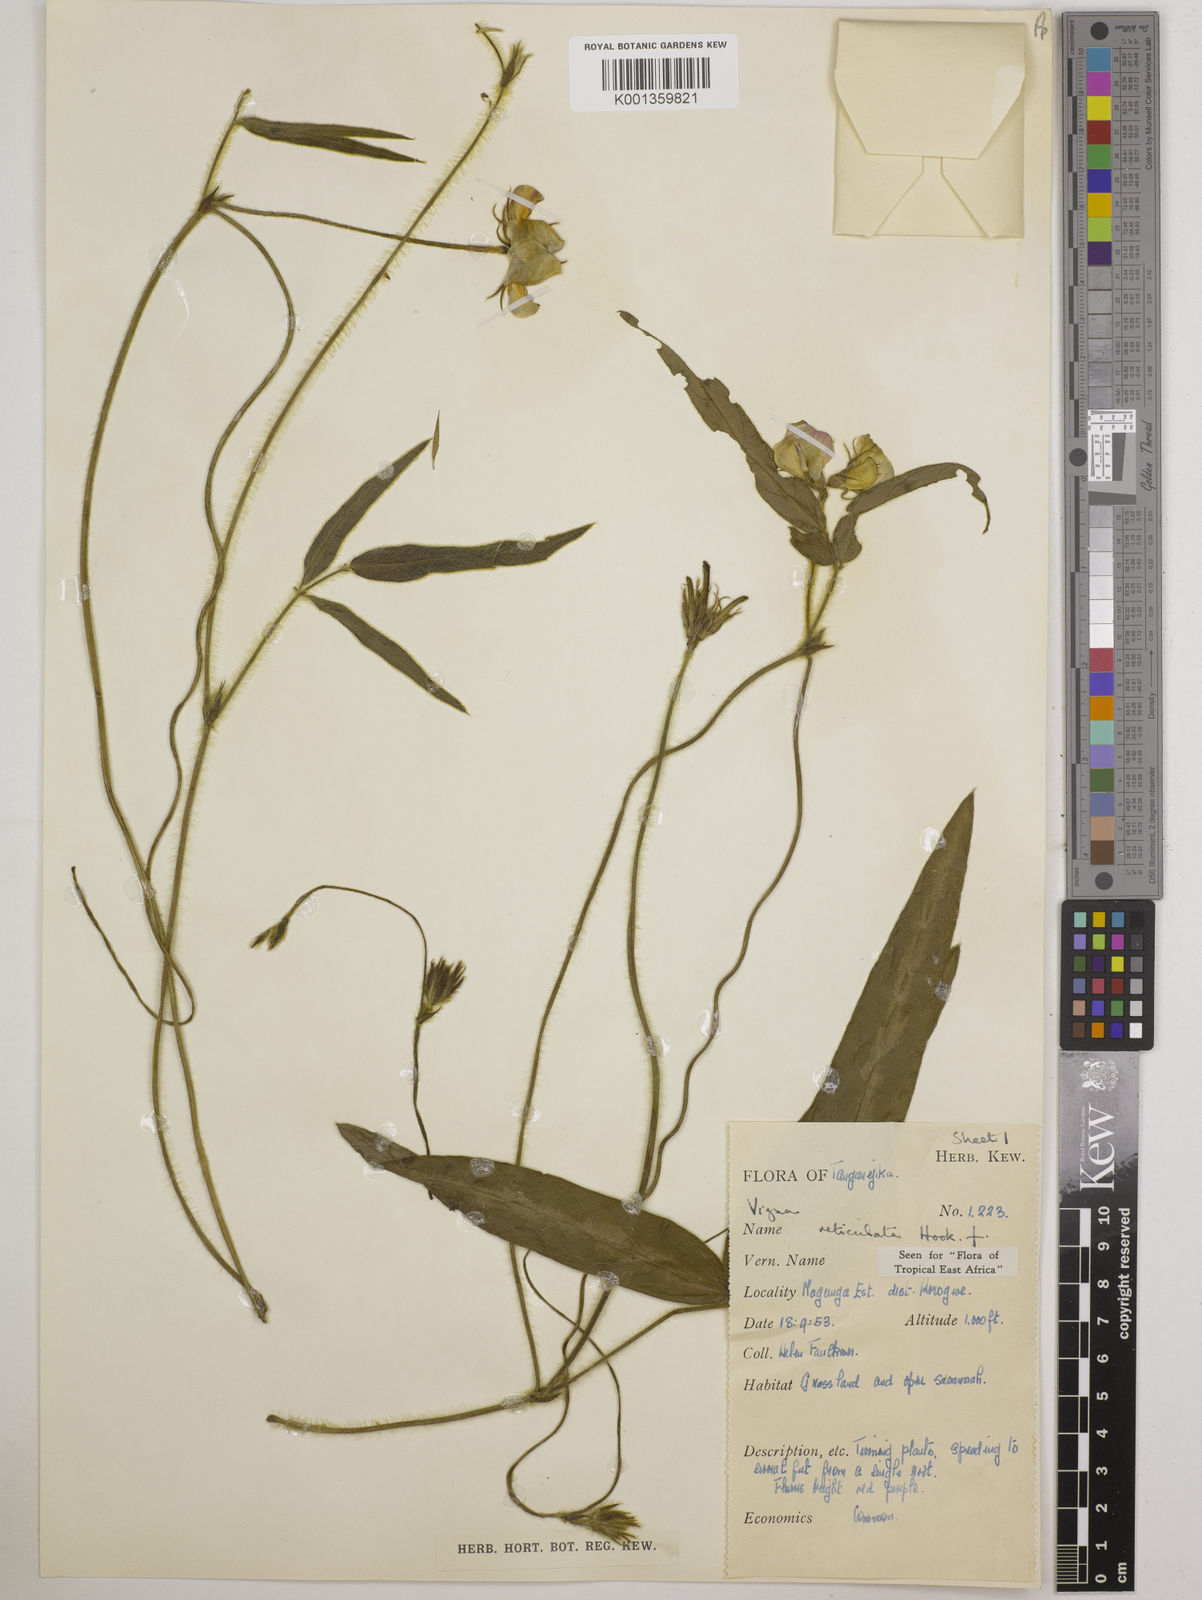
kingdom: Plantae
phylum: Tracheophyta
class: Magnoliopsida
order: Fabales
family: Fabaceae
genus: Vigna
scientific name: Vigna reticulata
